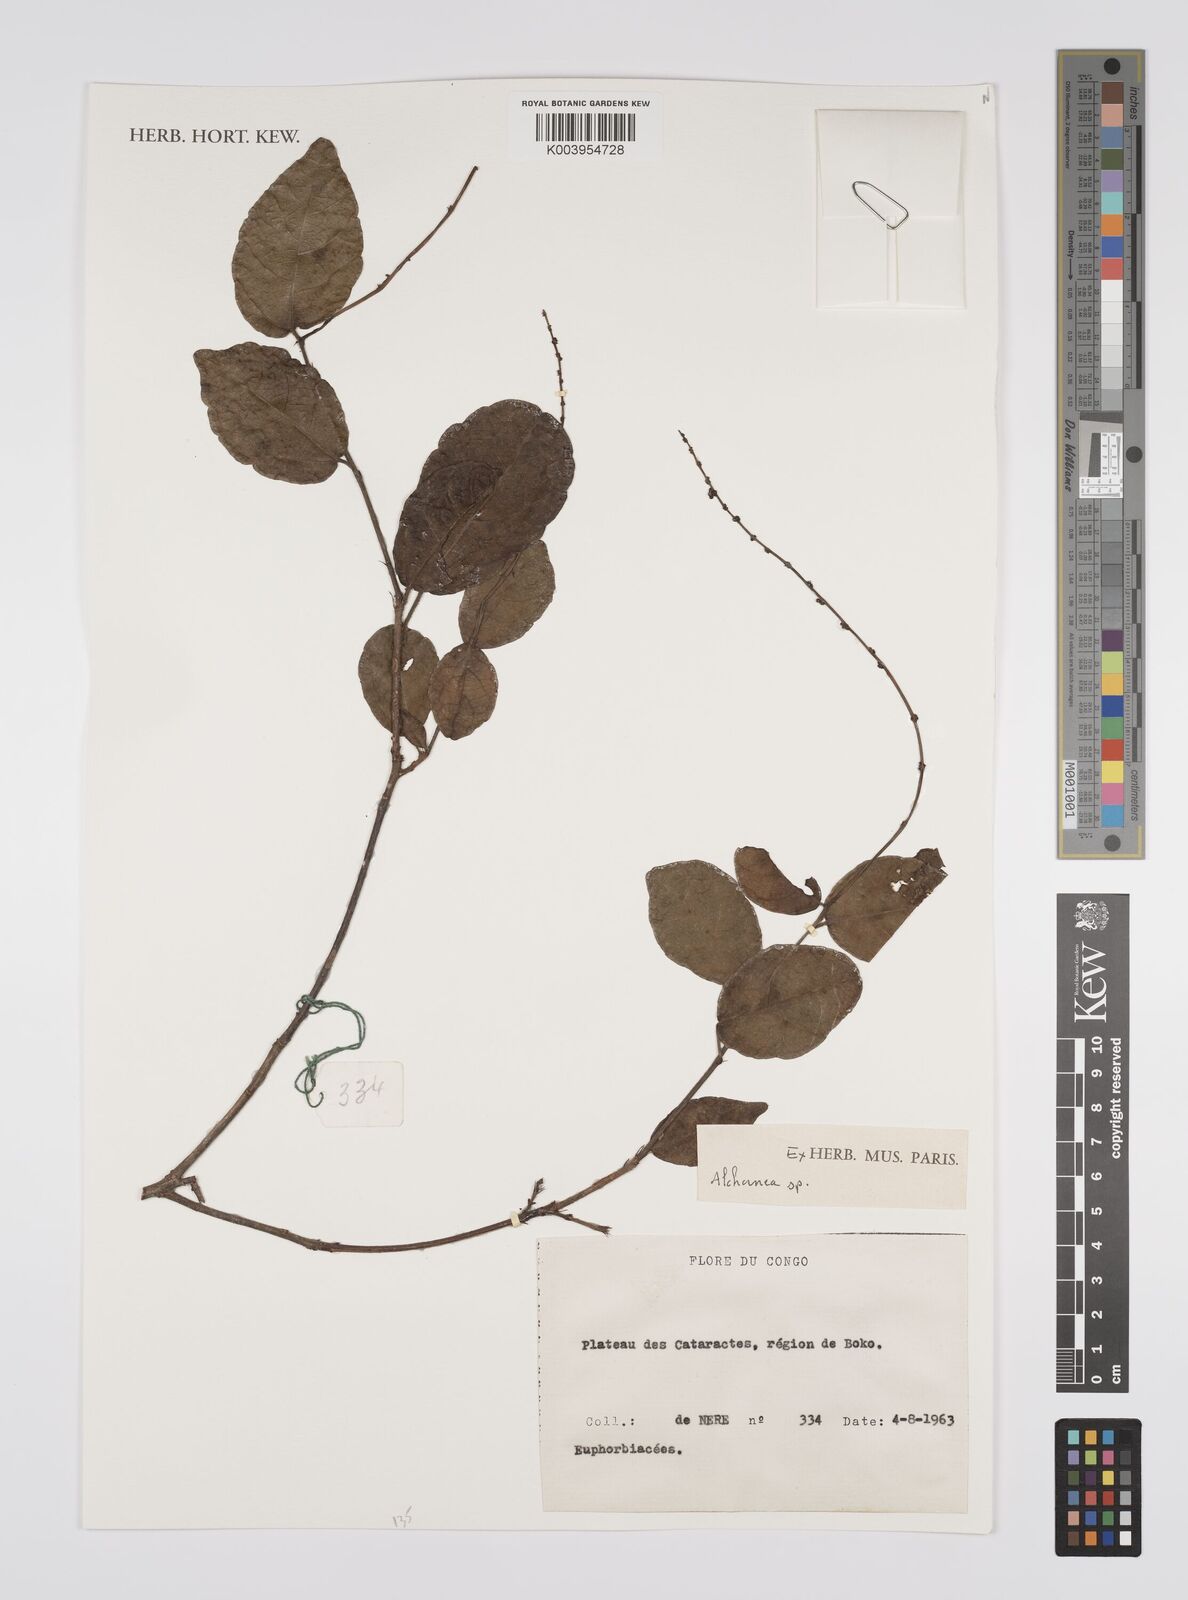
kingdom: Plantae
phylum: Tracheophyta
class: Magnoliopsida
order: Malpighiales
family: Euphorbiaceae
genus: Alchornea
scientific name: Alchornea
